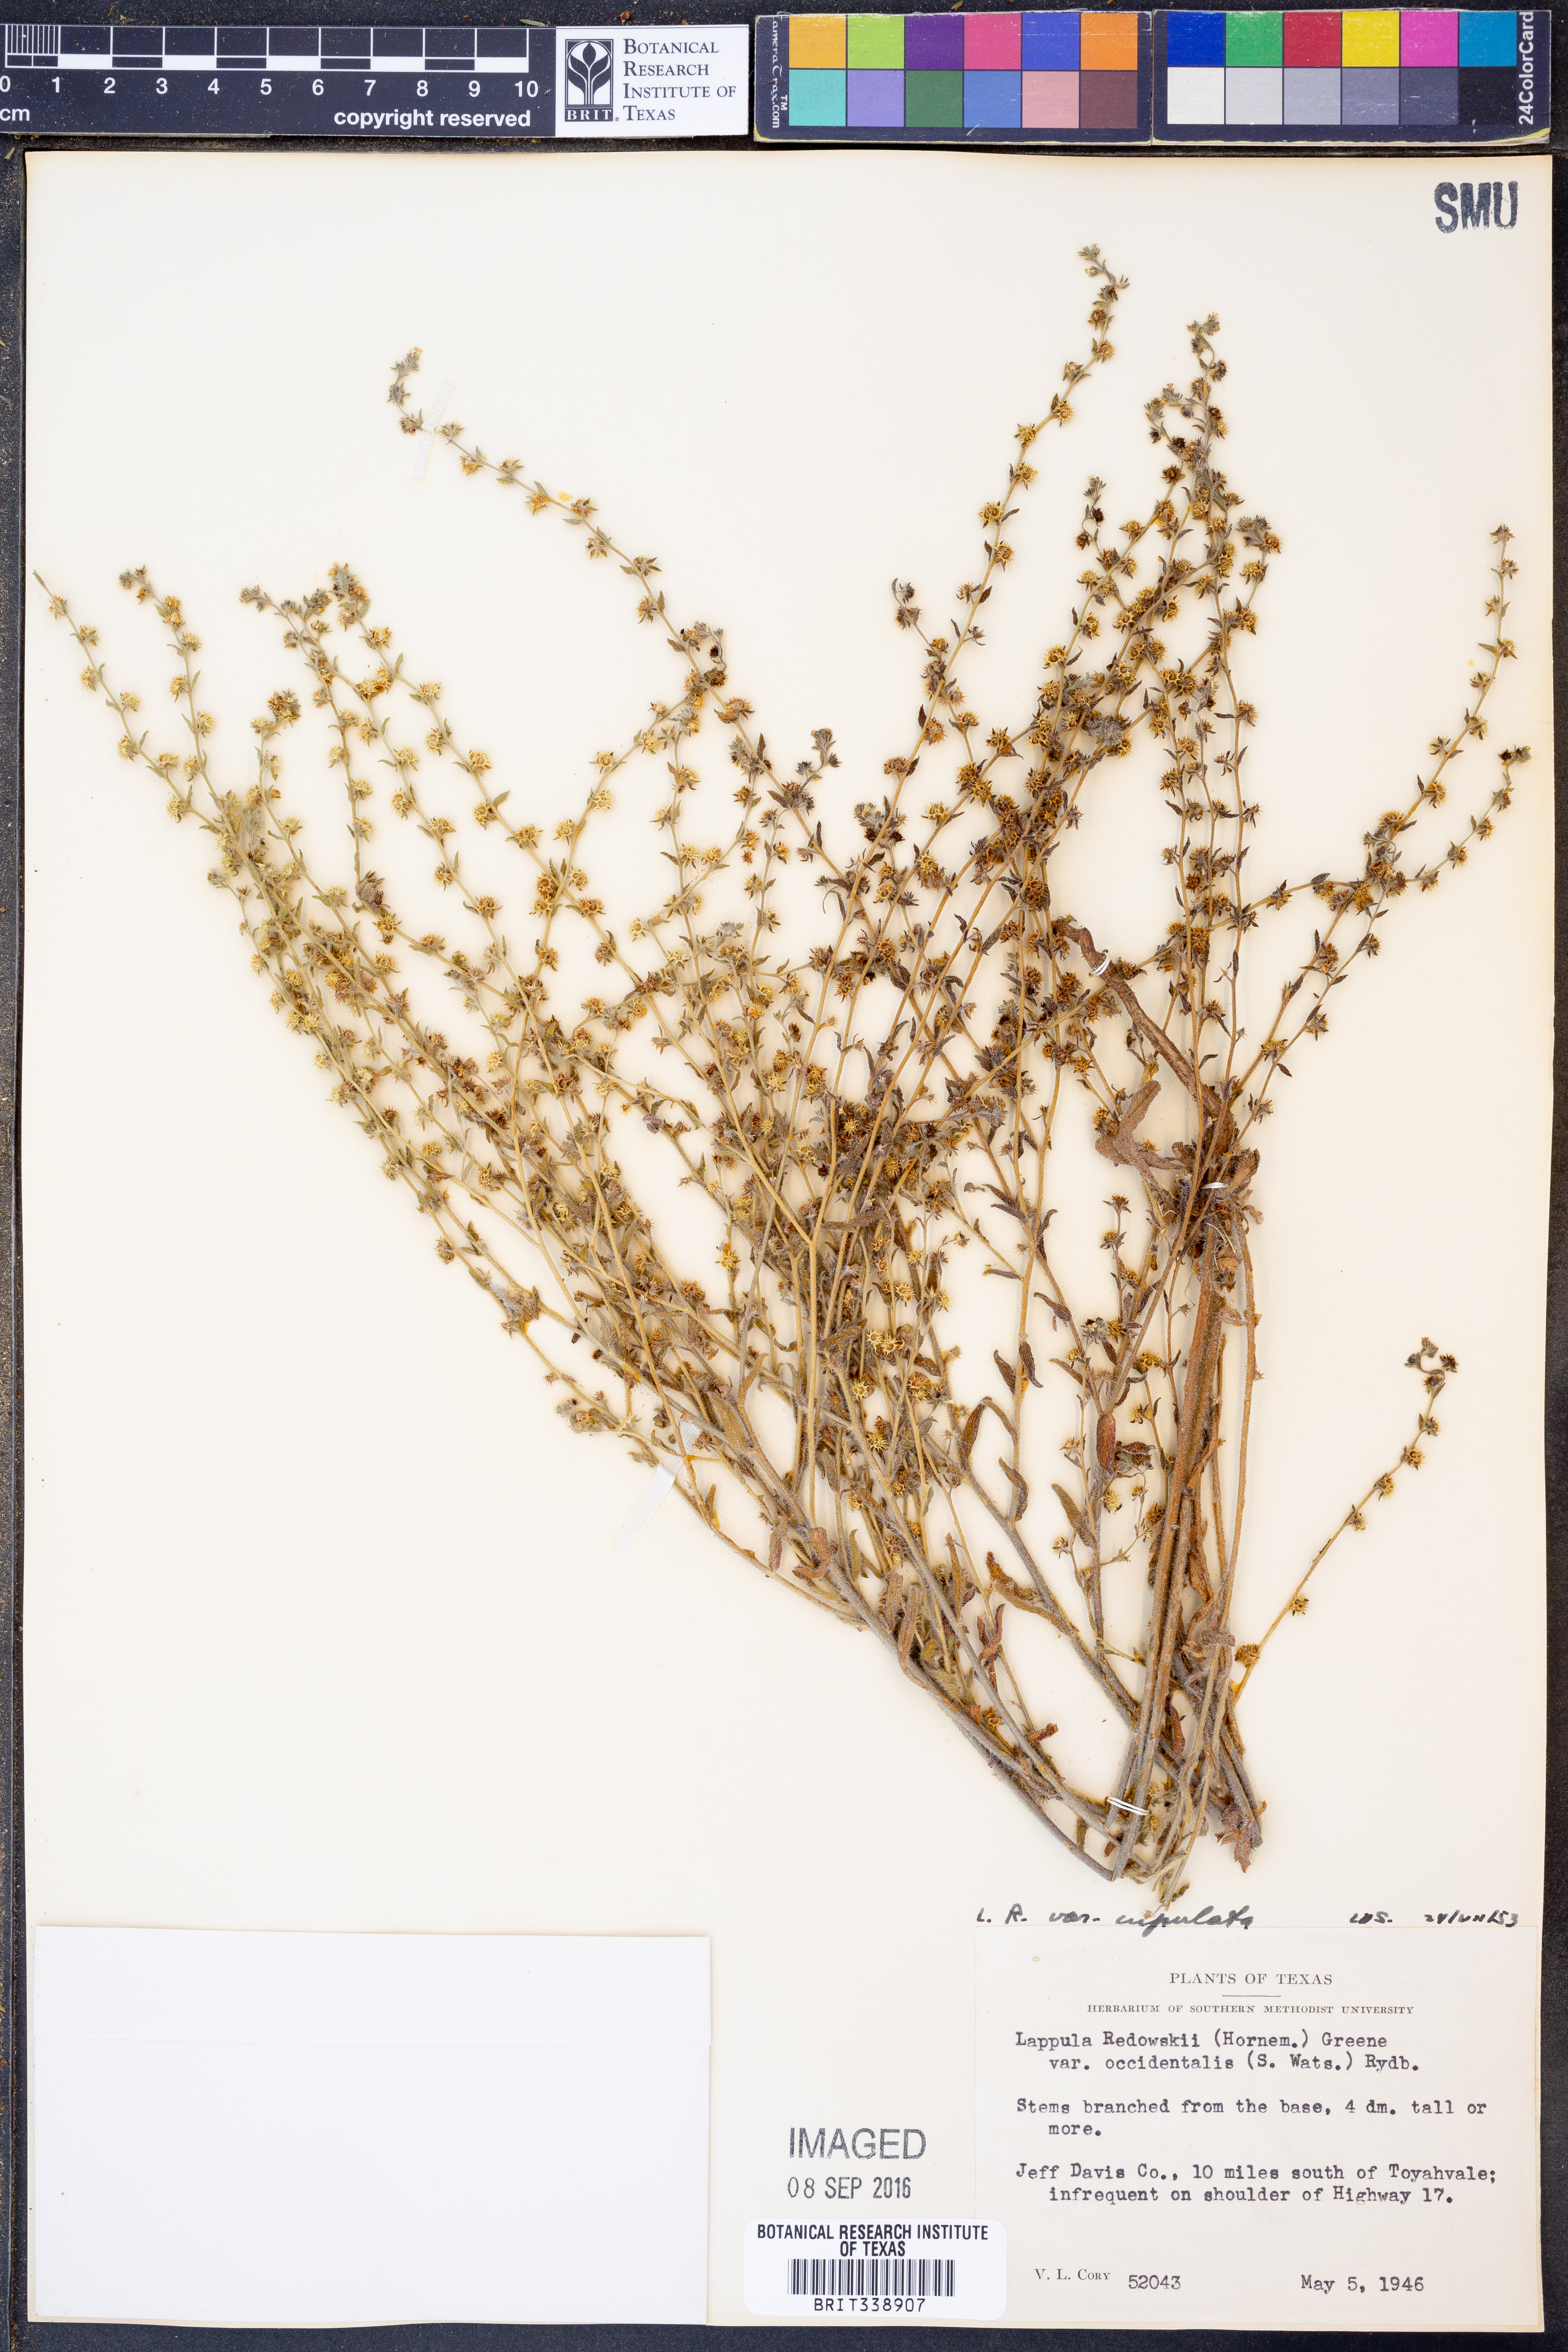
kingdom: Plantae
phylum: Tracheophyta
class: Magnoliopsida
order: Boraginales
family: Boraginaceae
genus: Lappula
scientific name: Lappula occidentalis
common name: Western stickseed
